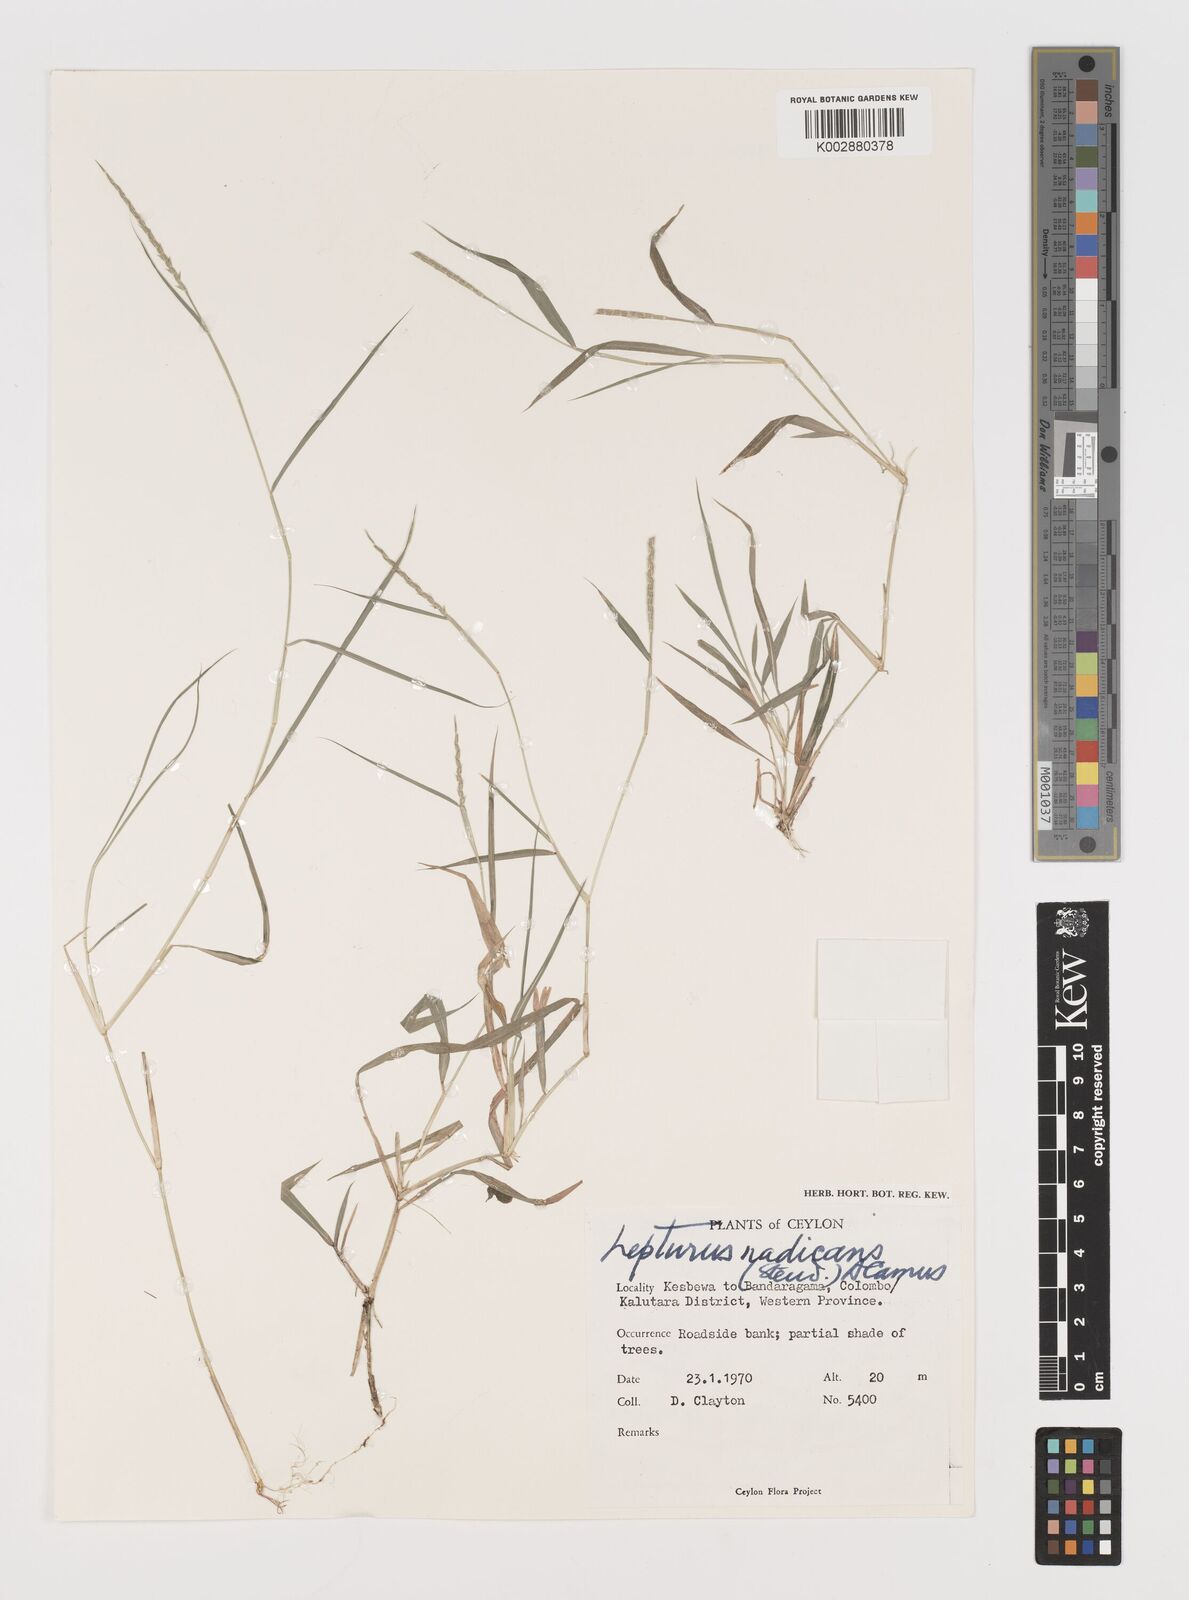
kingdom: Plantae
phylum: Tracheophyta
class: Liliopsida
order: Poales
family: Poaceae
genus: Lepturus
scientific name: Lepturus radicans
